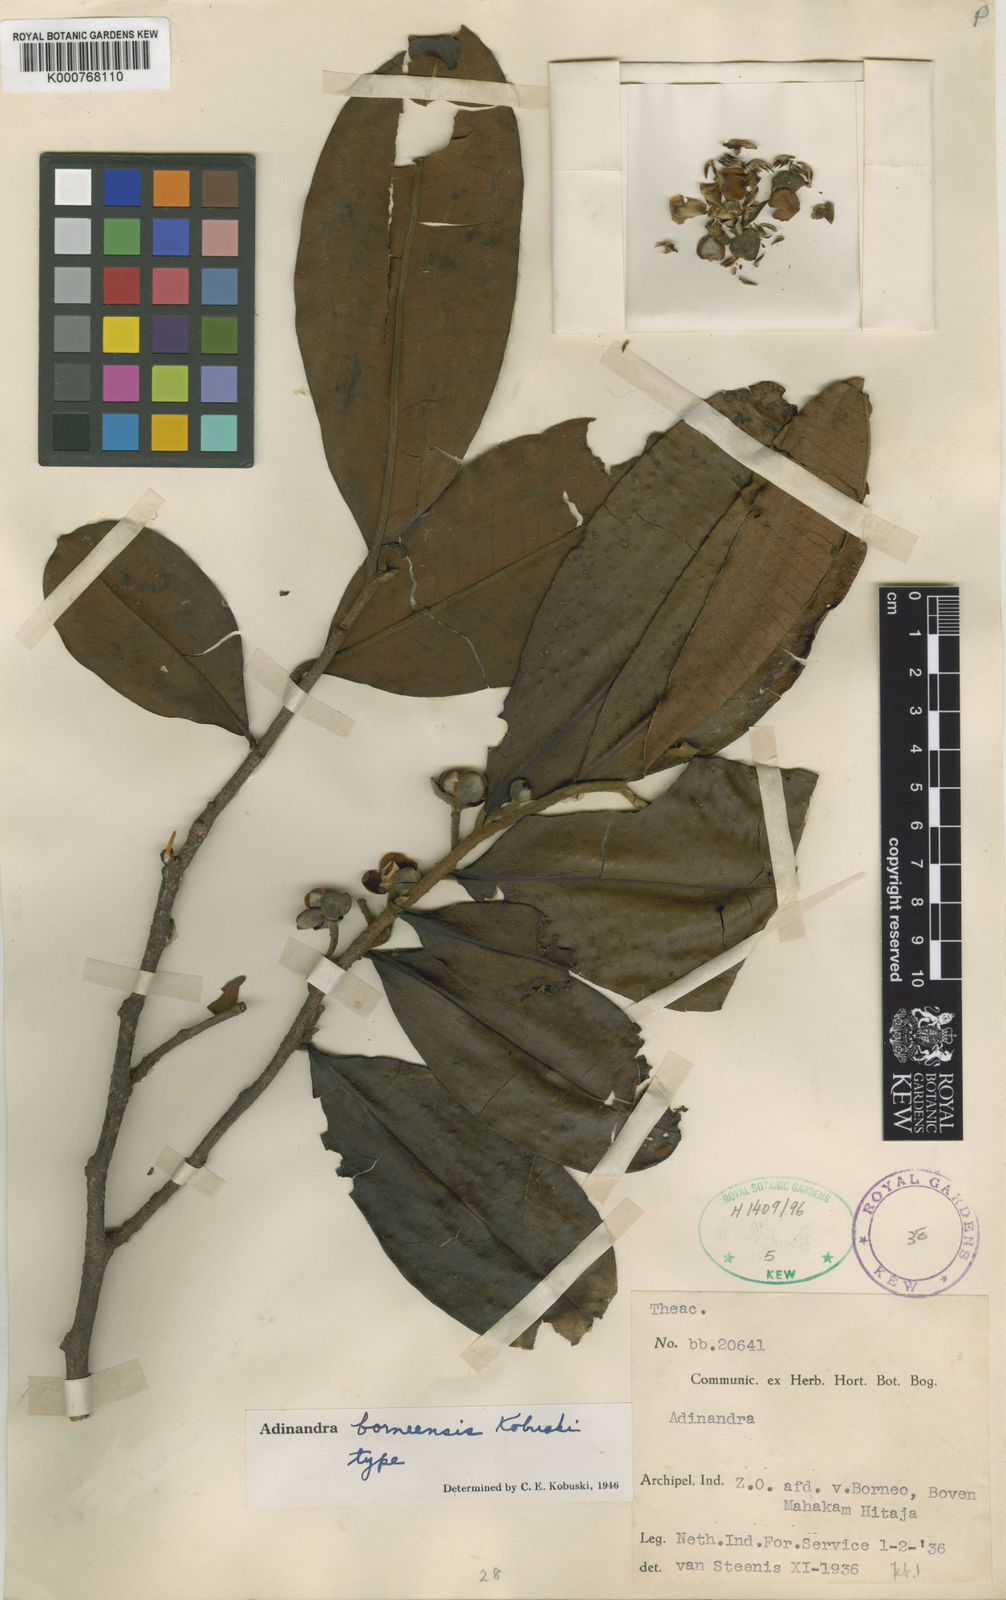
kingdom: Plantae
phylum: Tracheophyta
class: Magnoliopsida
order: Ericales
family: Pentaphylacaceae
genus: Adinandra
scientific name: Adinandra borneensis
